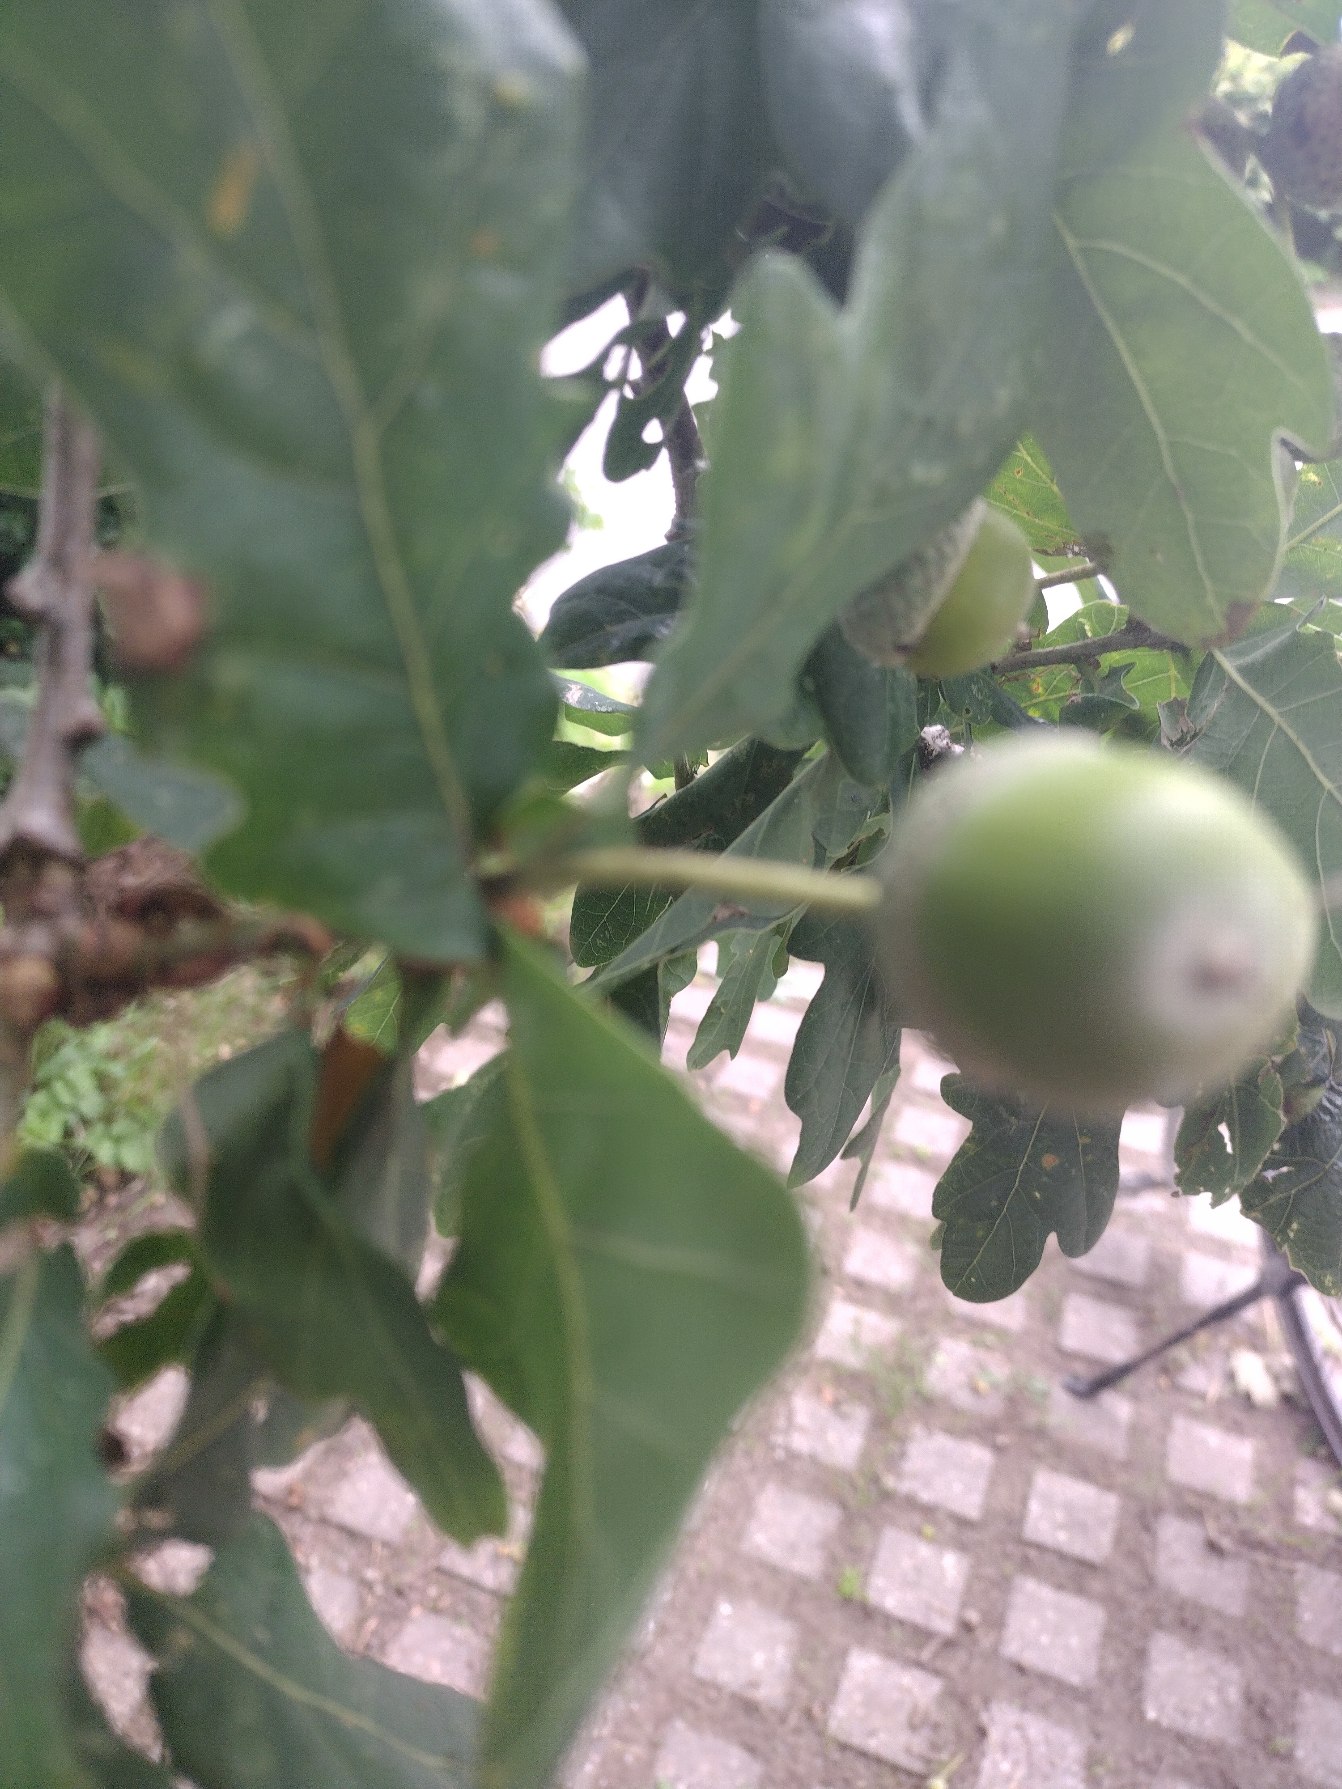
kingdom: Plantae
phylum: Tracheophyta
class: Magnoliopsida
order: Fagales
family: Fagaceae
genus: Quercus
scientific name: Quercus robur
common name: Stilk-eg/almindelig eg
